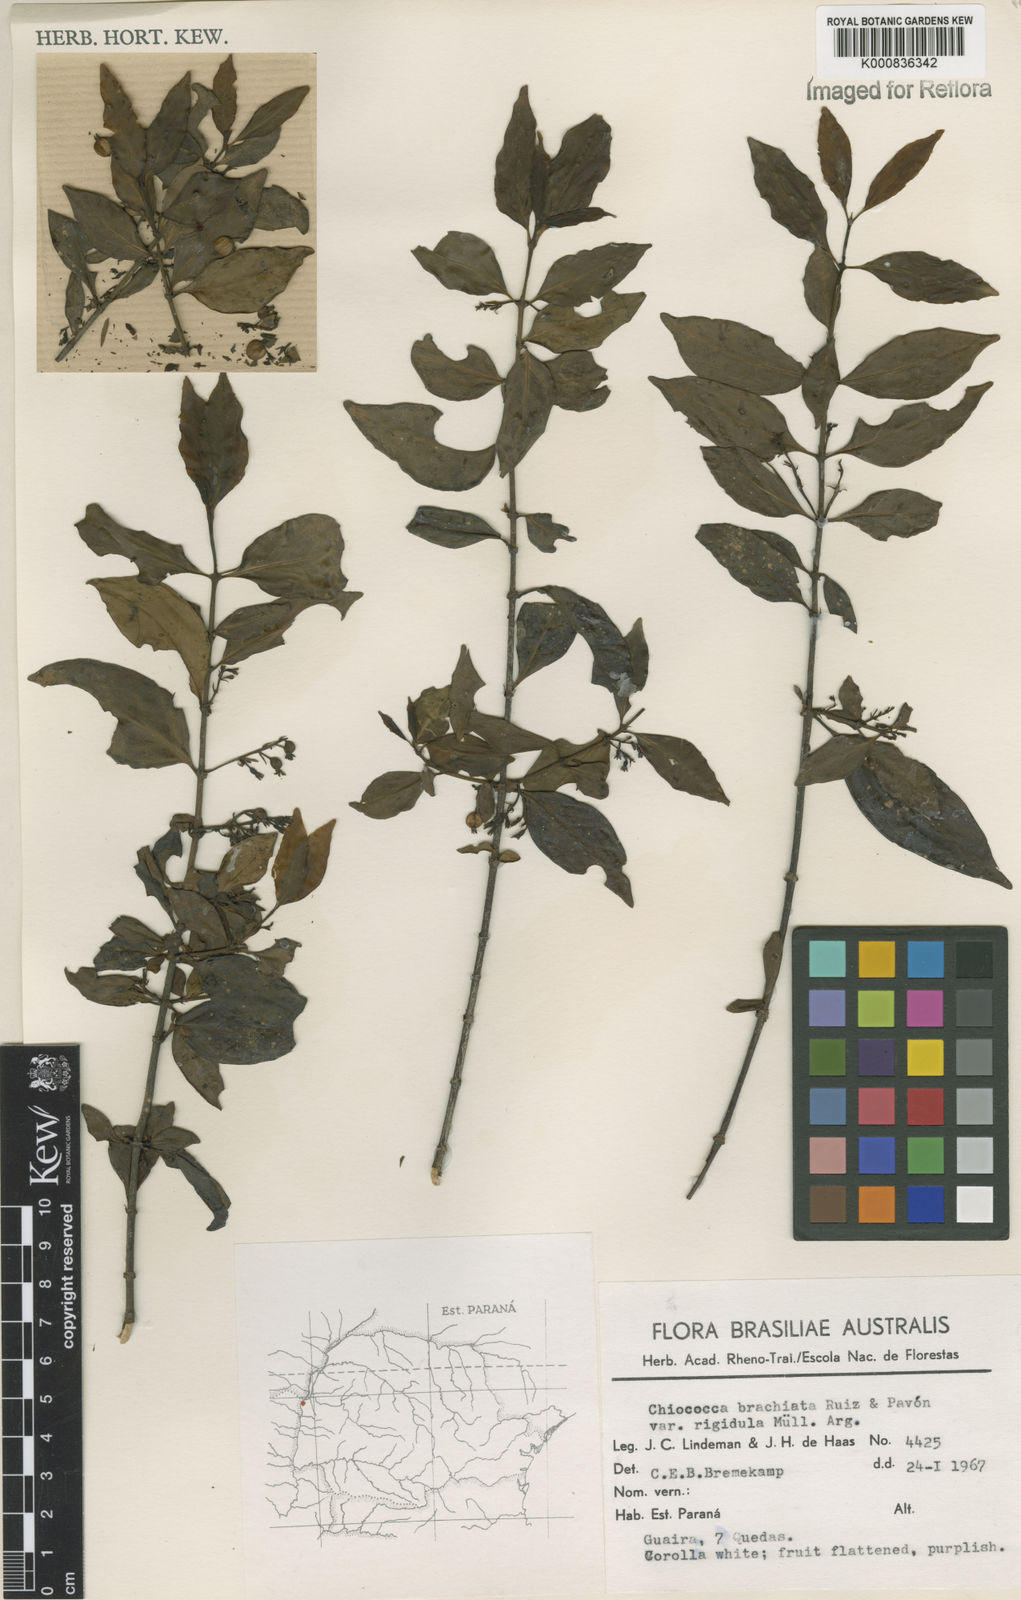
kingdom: Plantae
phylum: Tracheophyta
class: Magnoliopsida
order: Gentianales
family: Rubiaceae
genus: Chiococca
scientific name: Chiococca alba
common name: Snowberry
